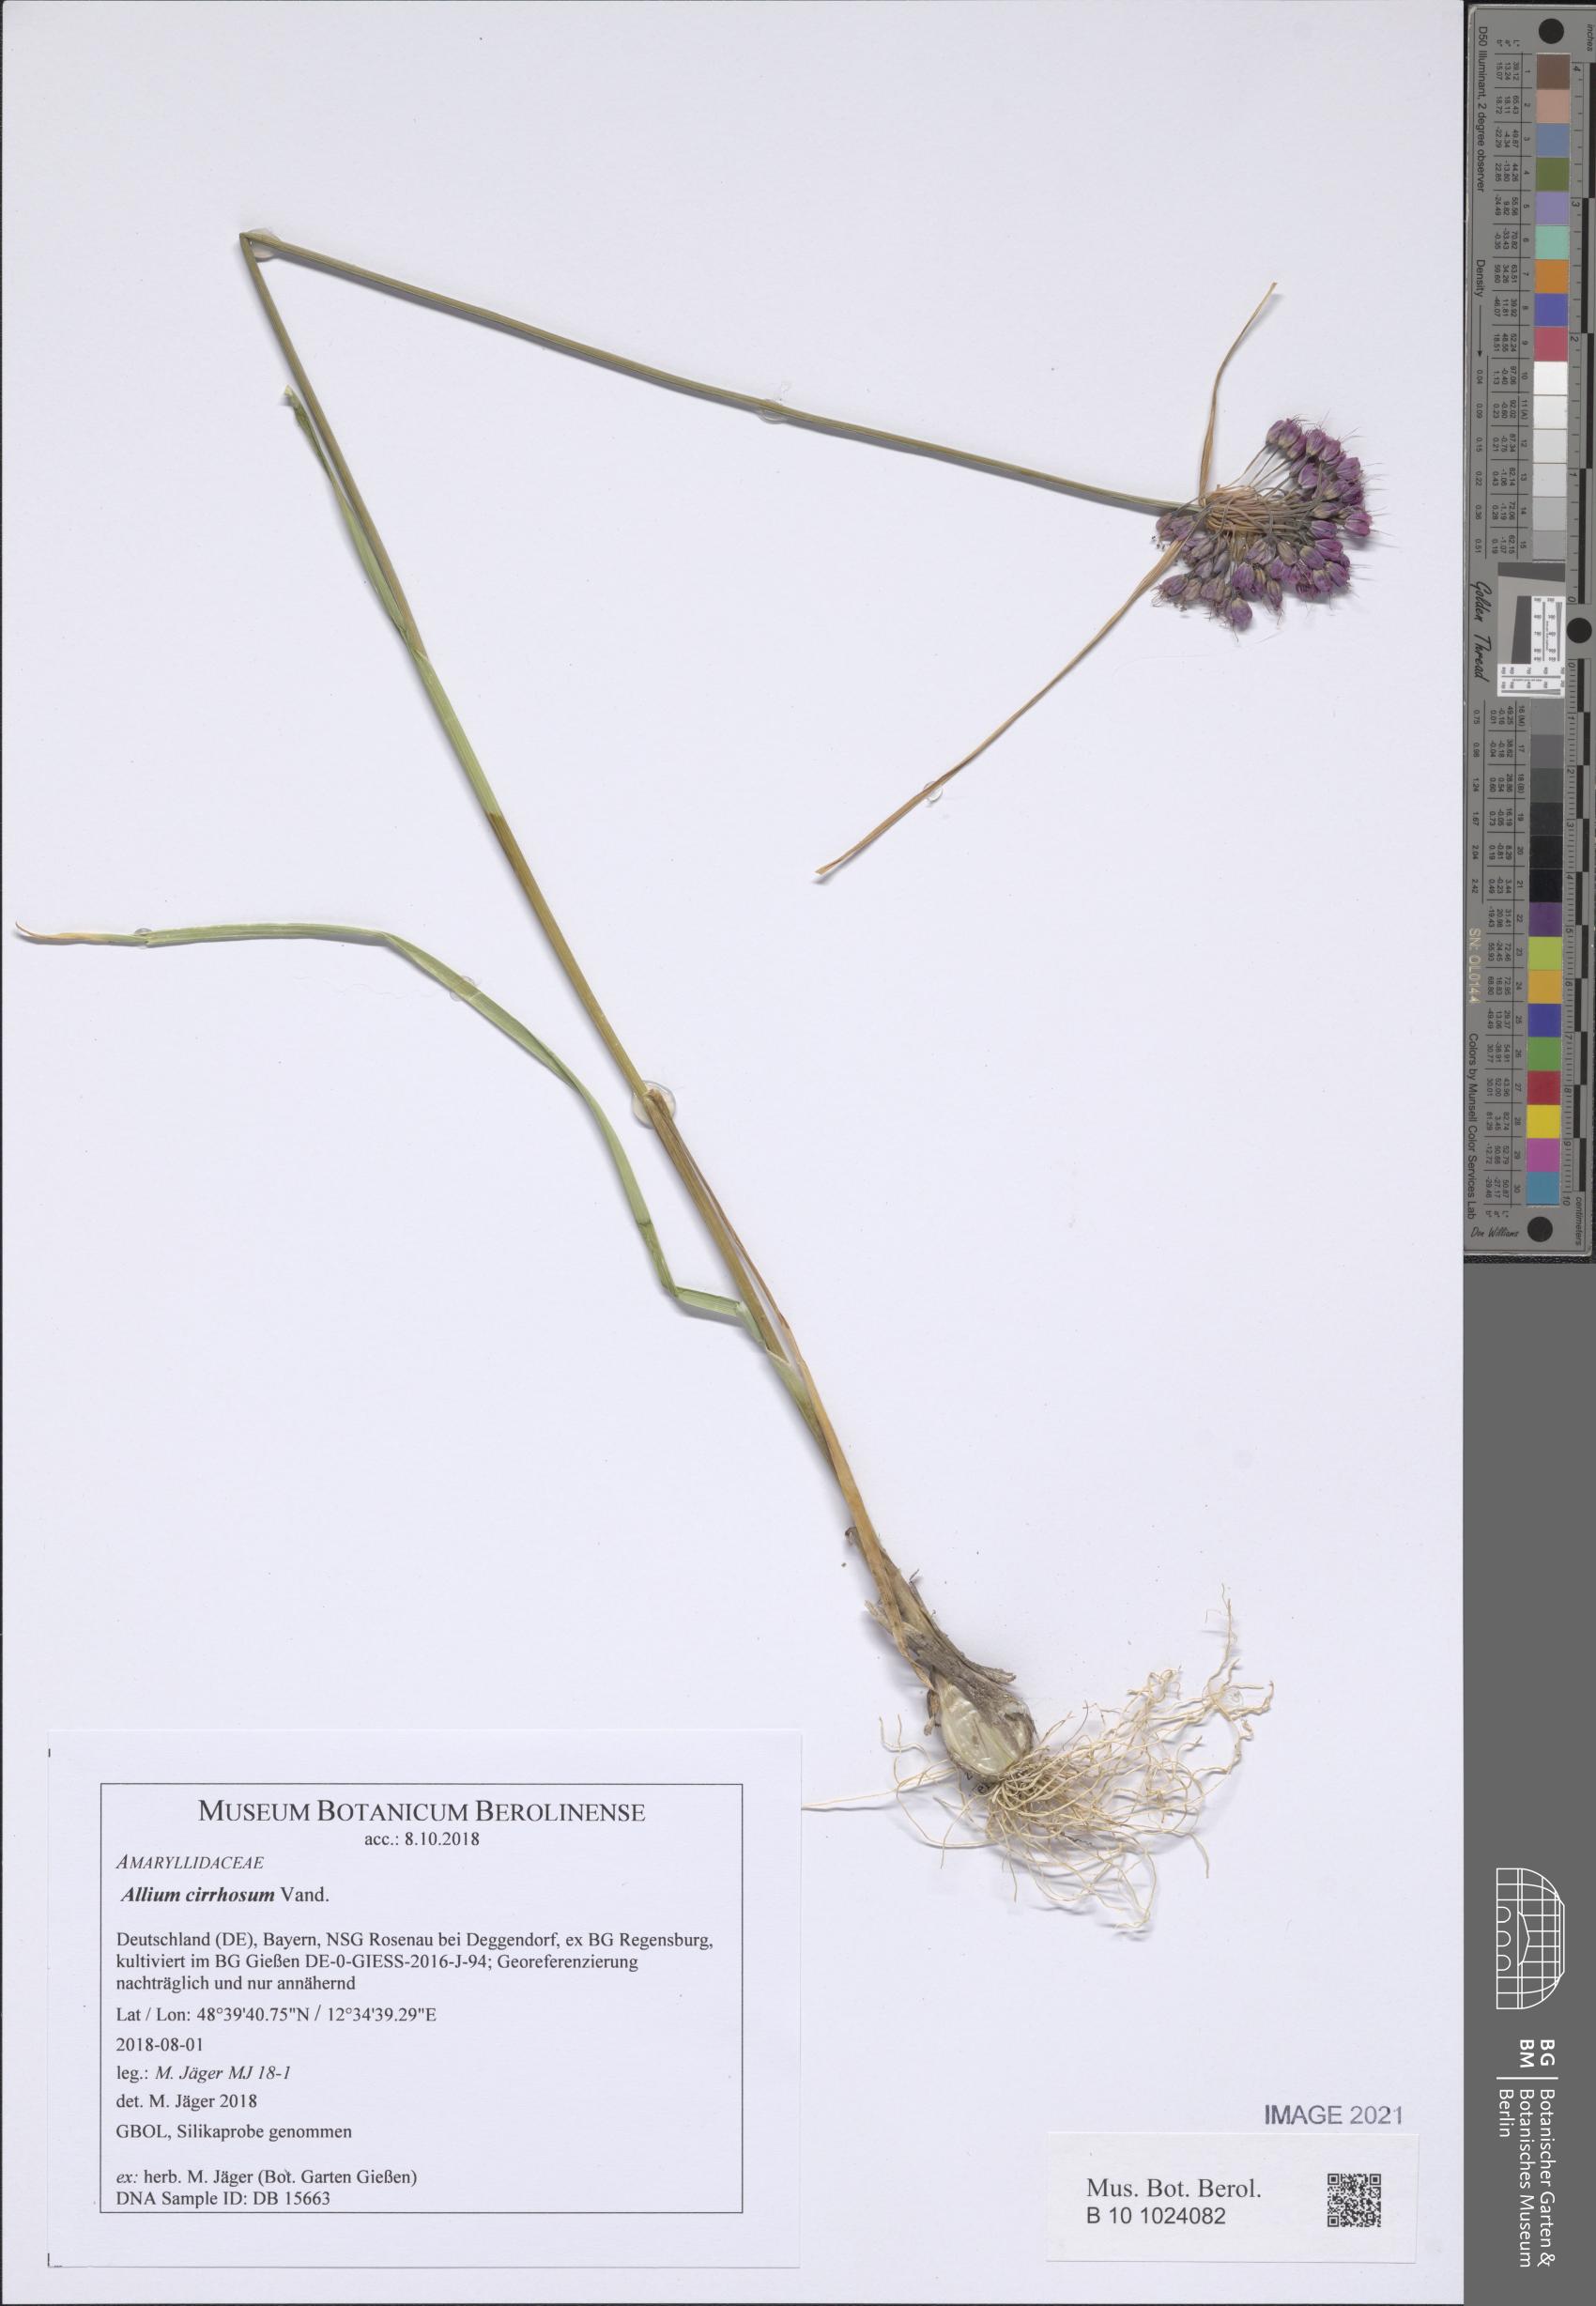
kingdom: Plantae
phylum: Tracheophyta
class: Liliopsida
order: Asparagales
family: Amaryllidaceae
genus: Allium
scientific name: Allium coloratum
